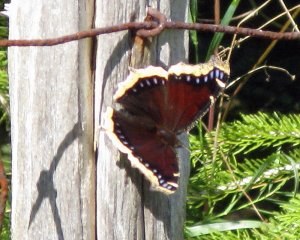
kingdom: Animalia
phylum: Arthropoda
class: Insecta
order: Lepidoptera
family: Nymphalidae
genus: Nymphalis
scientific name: Nymphalis antiopa
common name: Mourning Cloak
